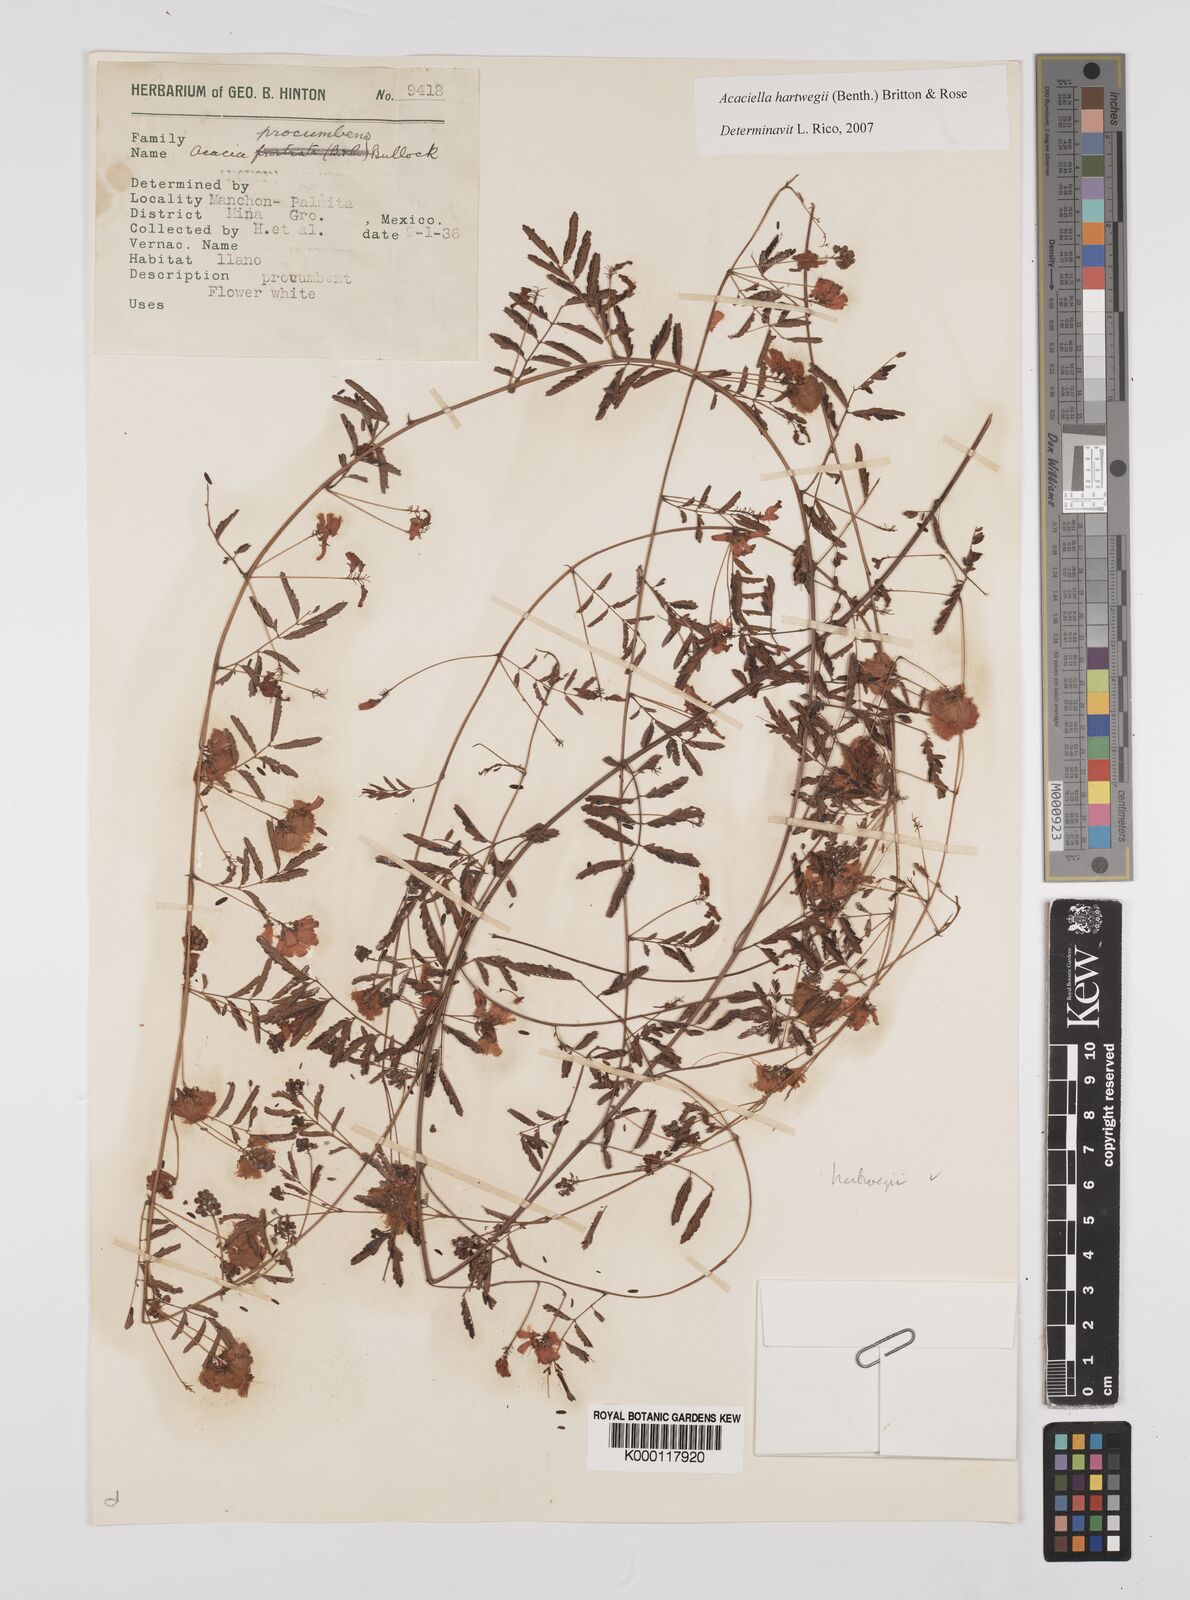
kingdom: Plantae
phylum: Tracheophyta
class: Magnoliopsida
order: Fabales
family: Fabaceae
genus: Acaciella
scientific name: Acaciella hartwegii
